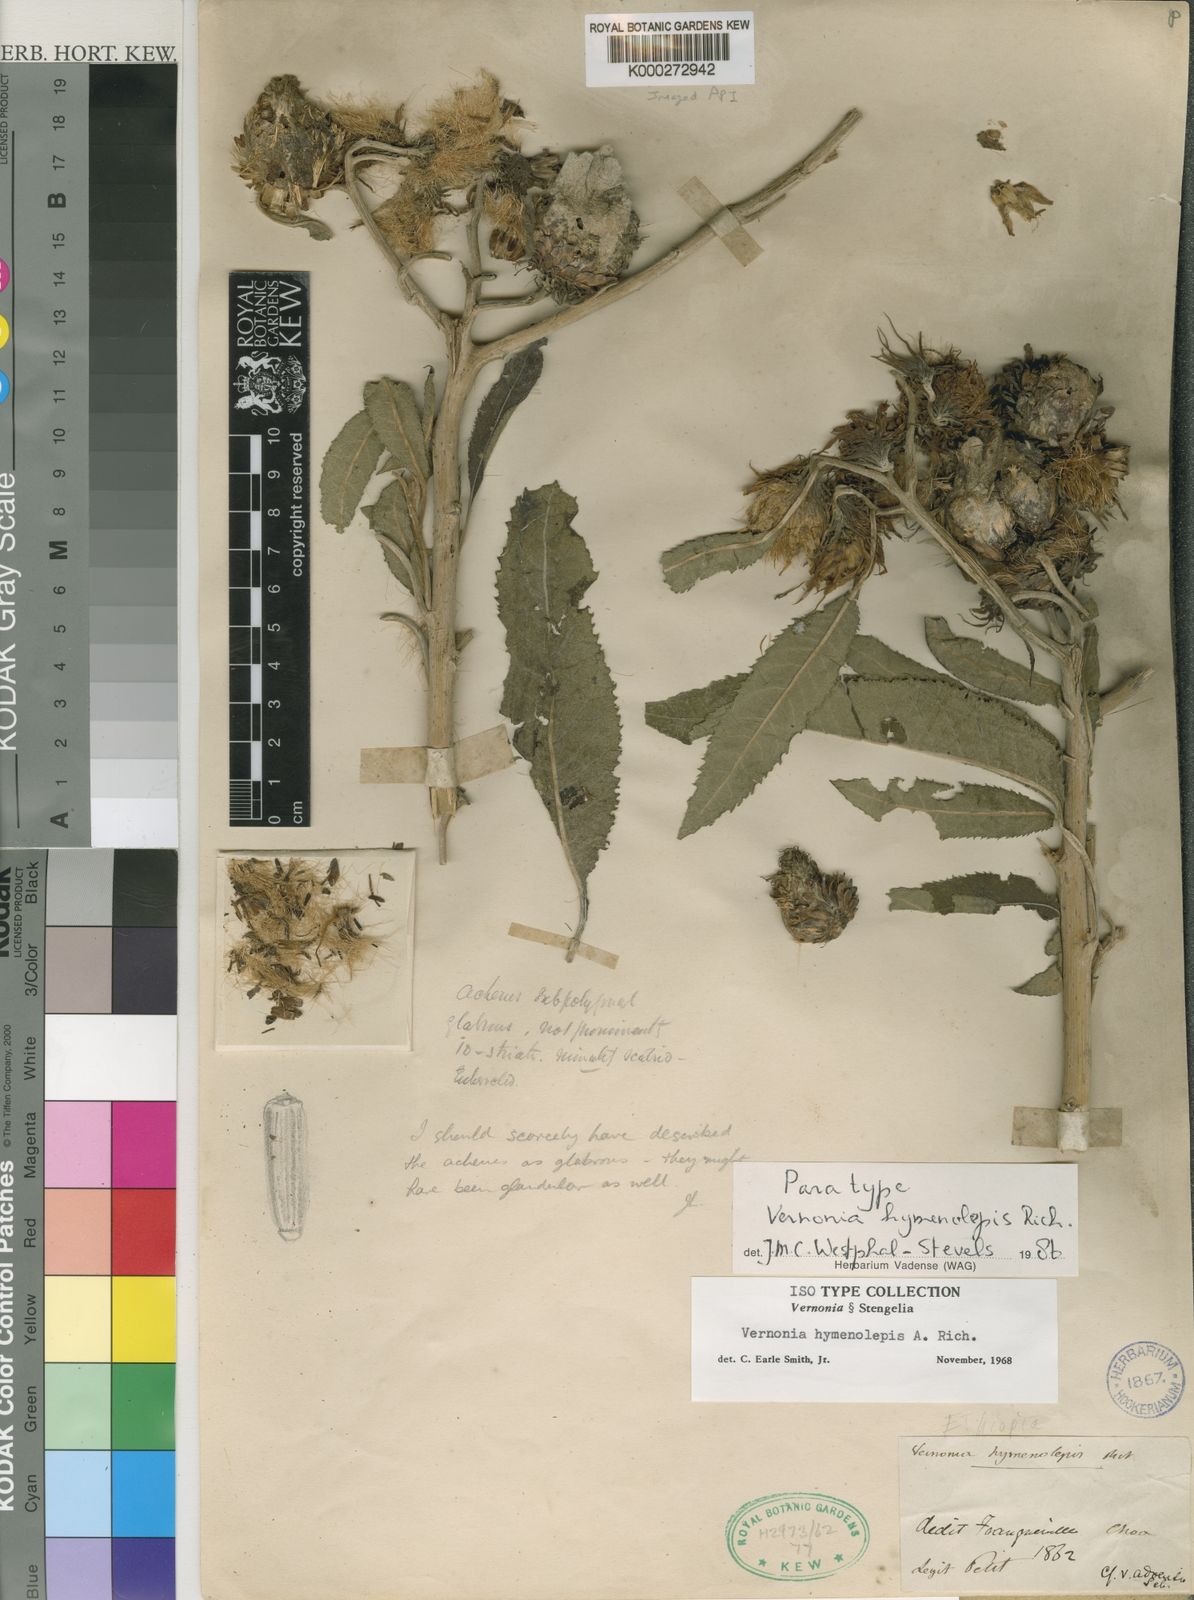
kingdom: Plantae
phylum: Tracheophyta
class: Magnoliopsida
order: Asterales
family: Asteraceae
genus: Baccharoides
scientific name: Baccharoides hymenolepis
